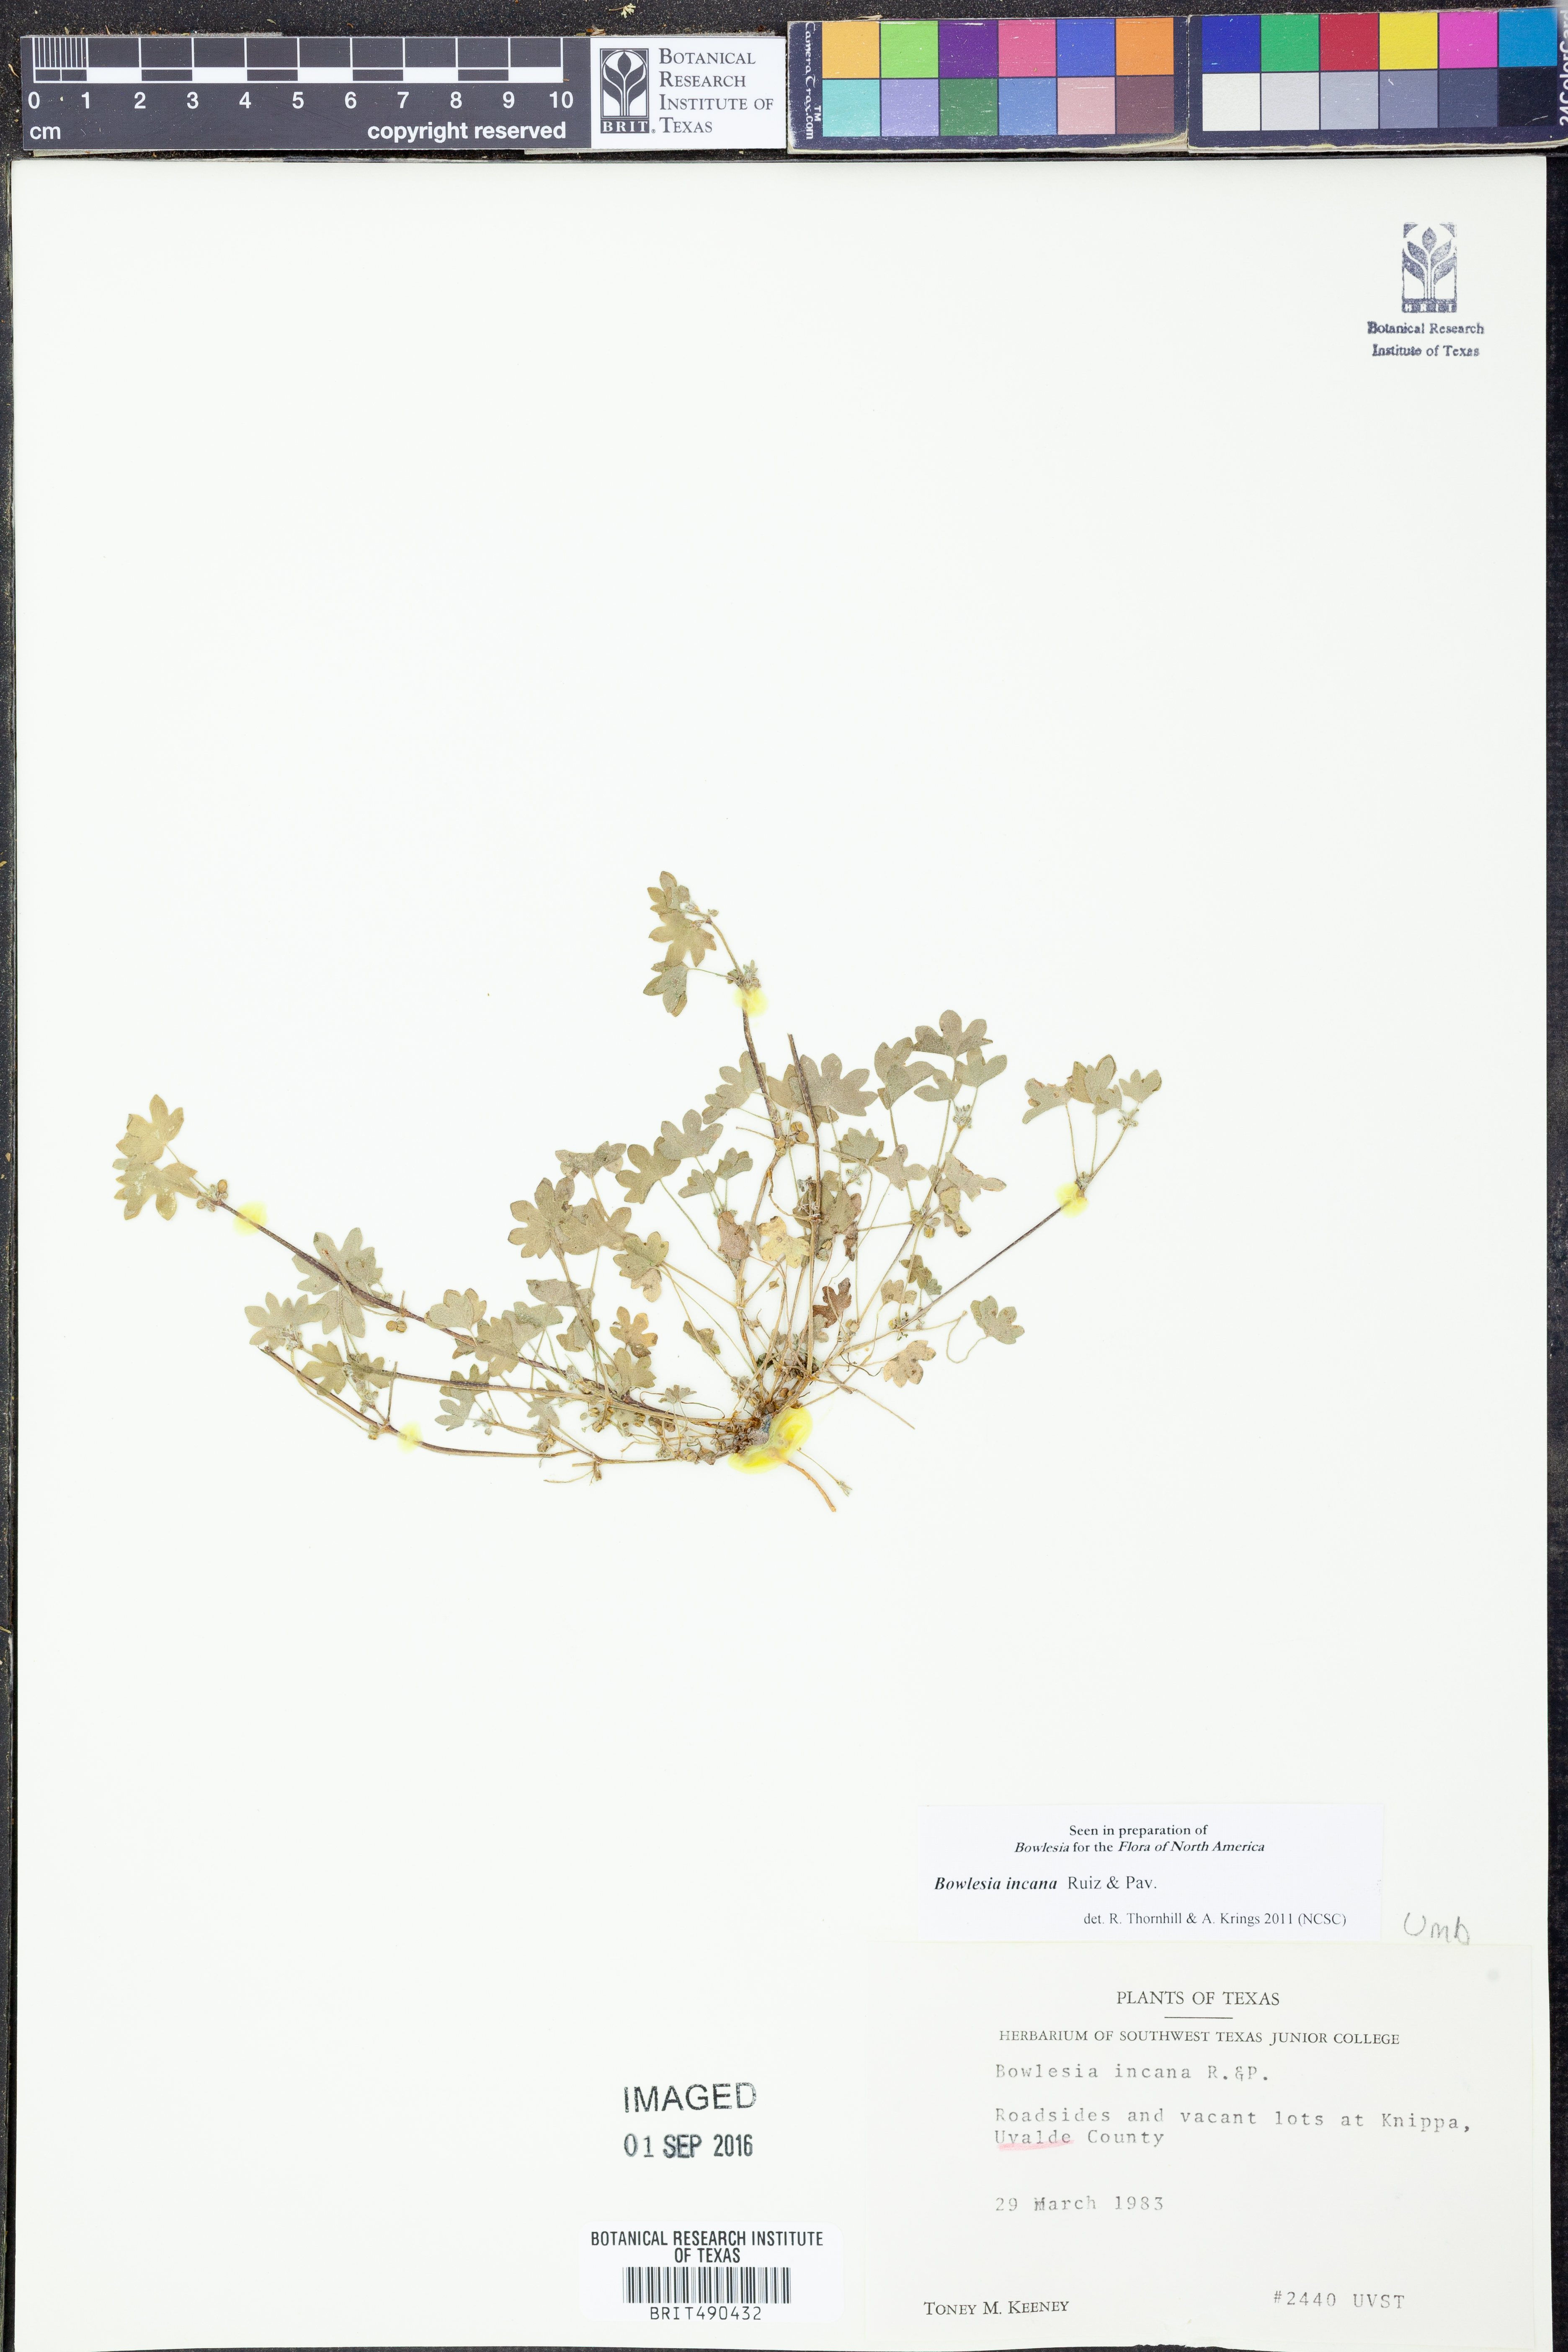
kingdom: Plantae
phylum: Tracheophyta
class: Magnoliopsida
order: Apiales
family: Apiaceae
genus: Bowlesia
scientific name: Bowlesia incana
